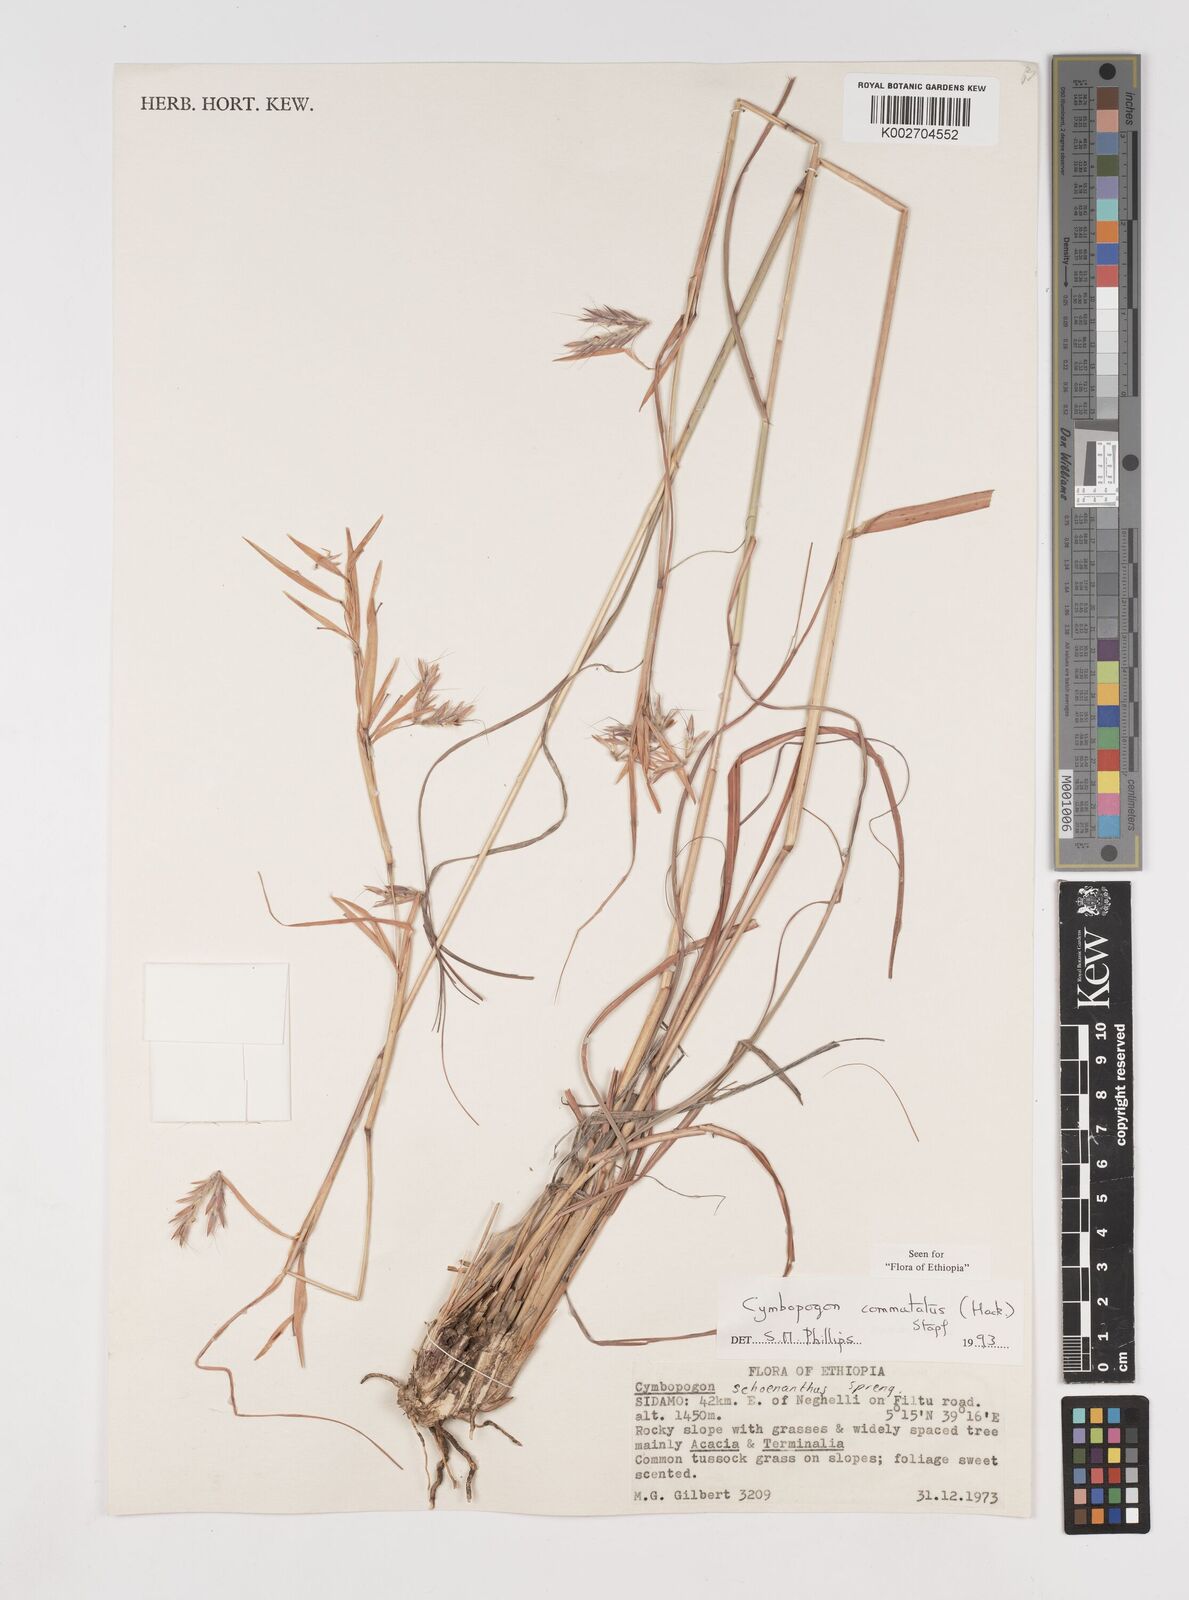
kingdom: Plantae
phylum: Tracheophyta
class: Liliopsida
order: Poales
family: Poaceae
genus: Cymbopogon
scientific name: Cymbopogon commutatus
